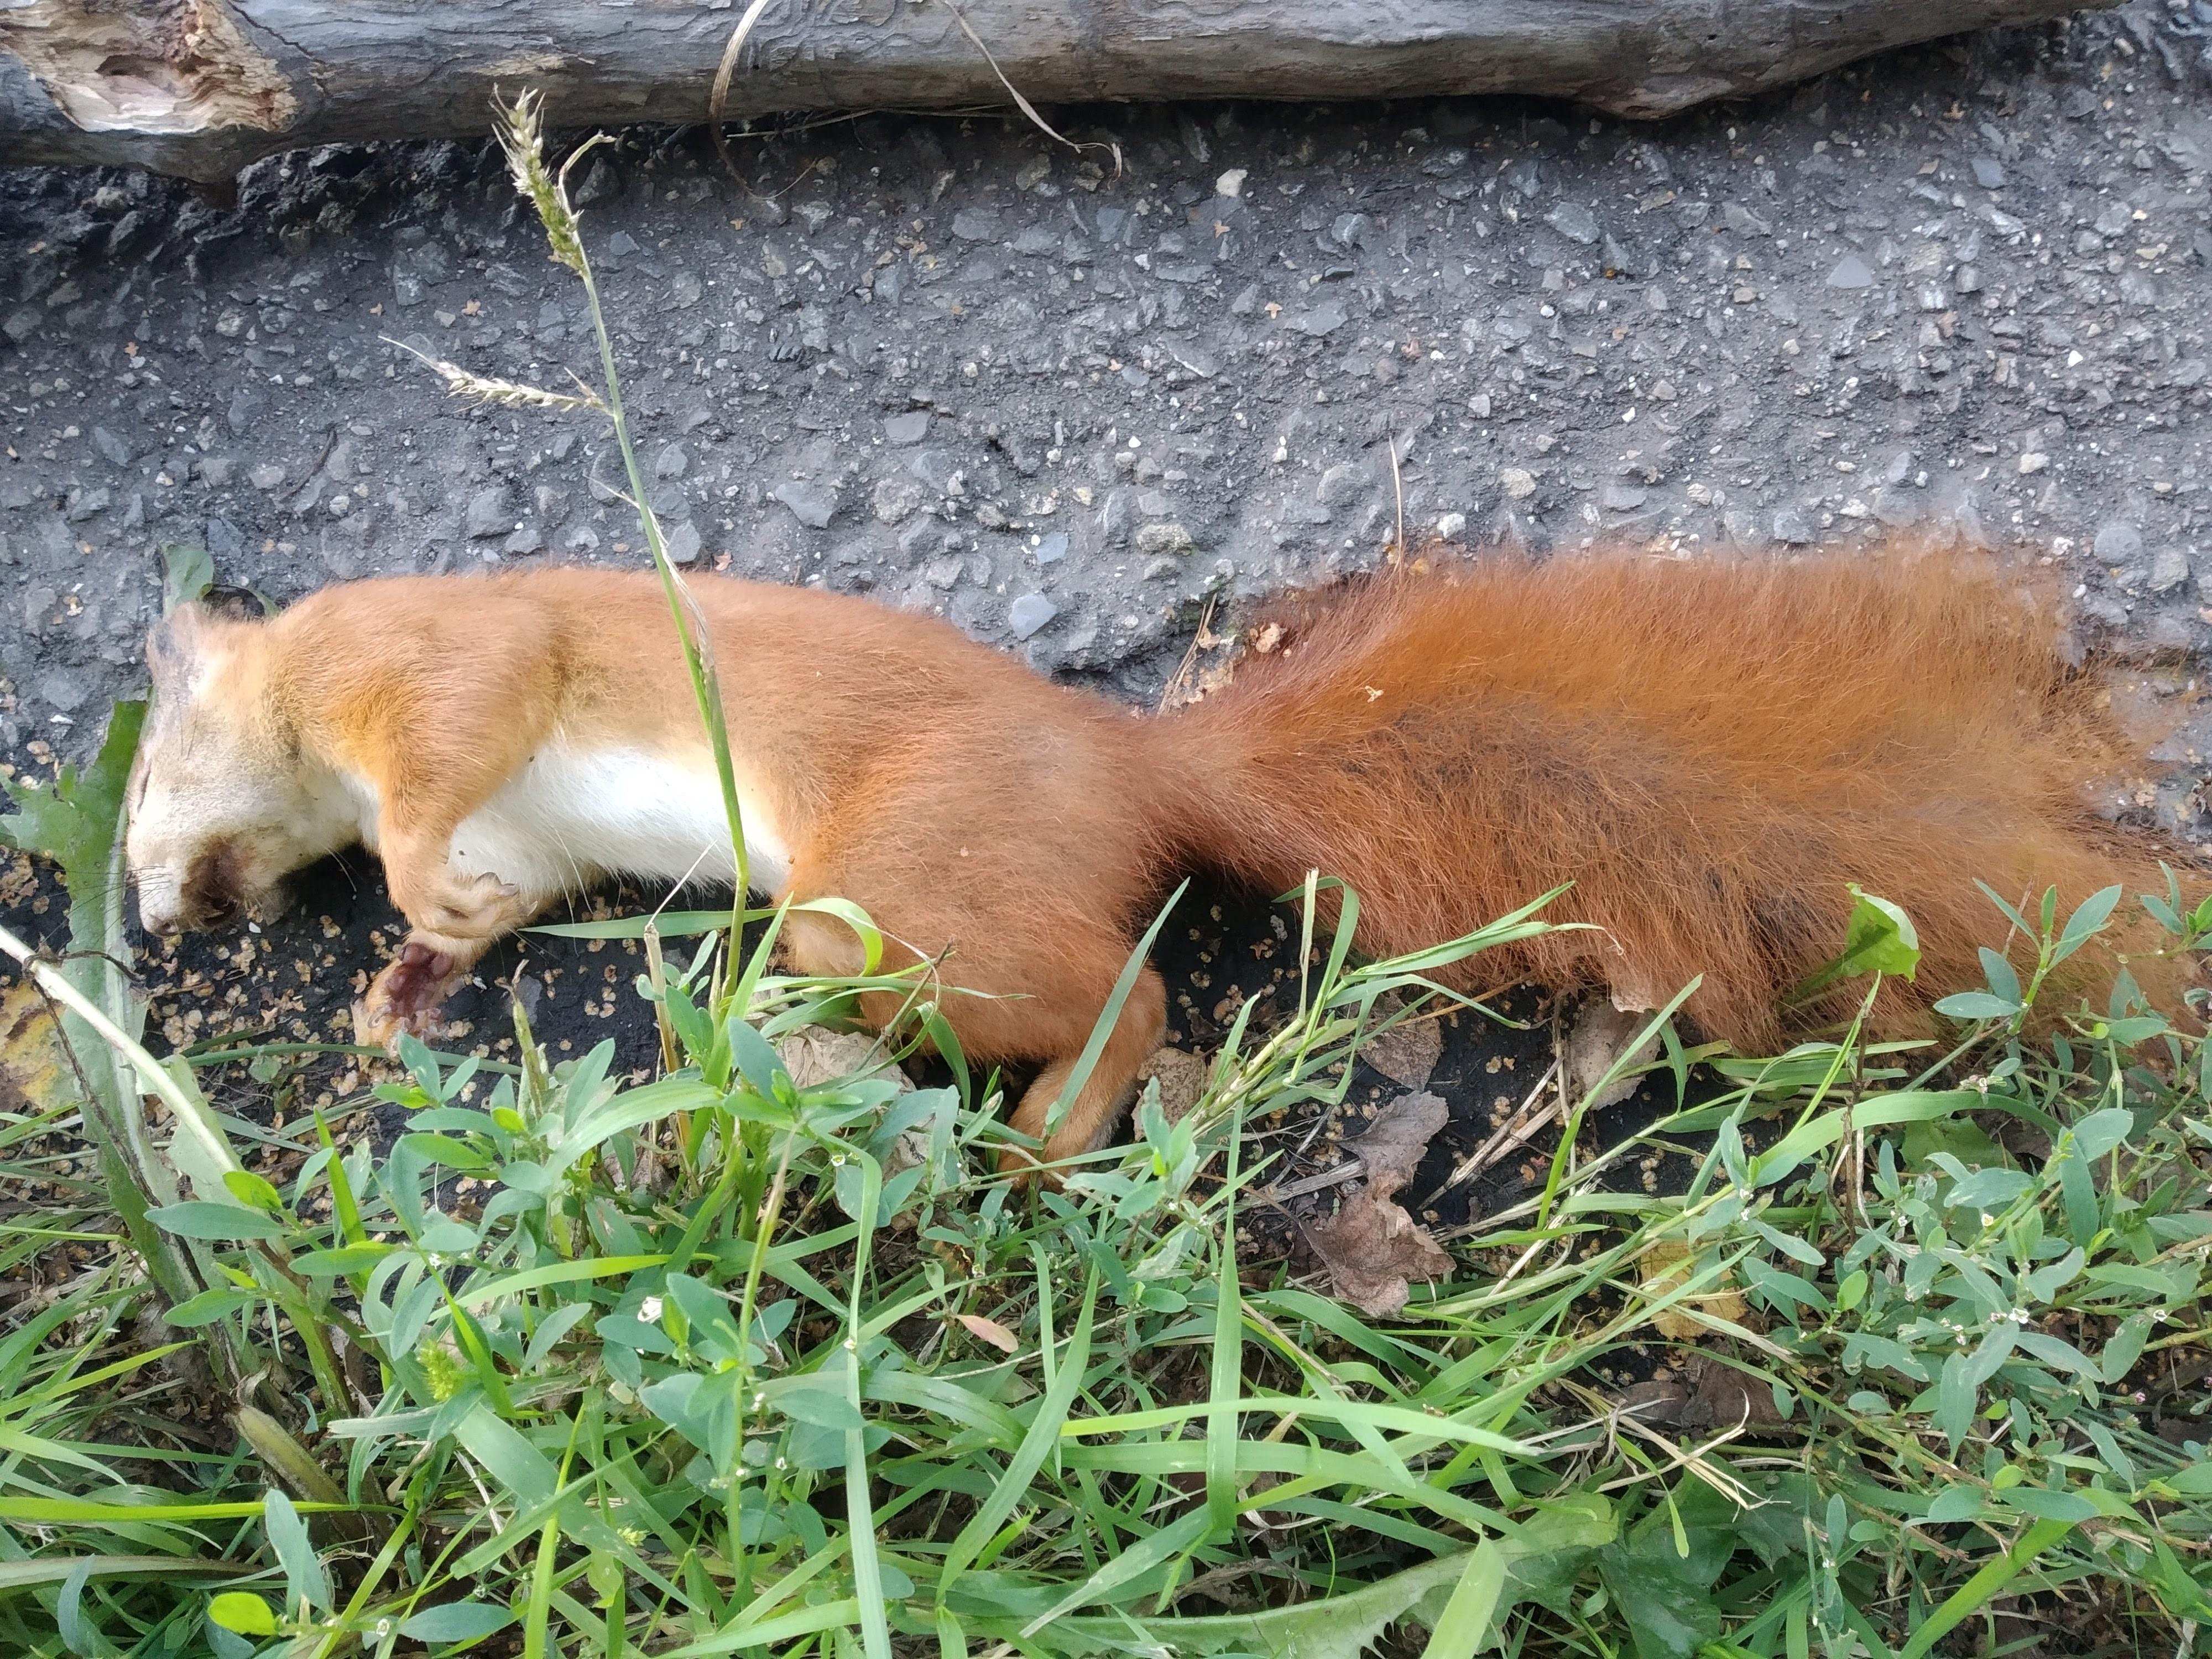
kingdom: Animalia
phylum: Chordata
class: Mammalia
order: Rodentia
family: Sciuridae
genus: Sciurus
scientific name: Sciurus vulgaris
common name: Eurasian red squirrel
